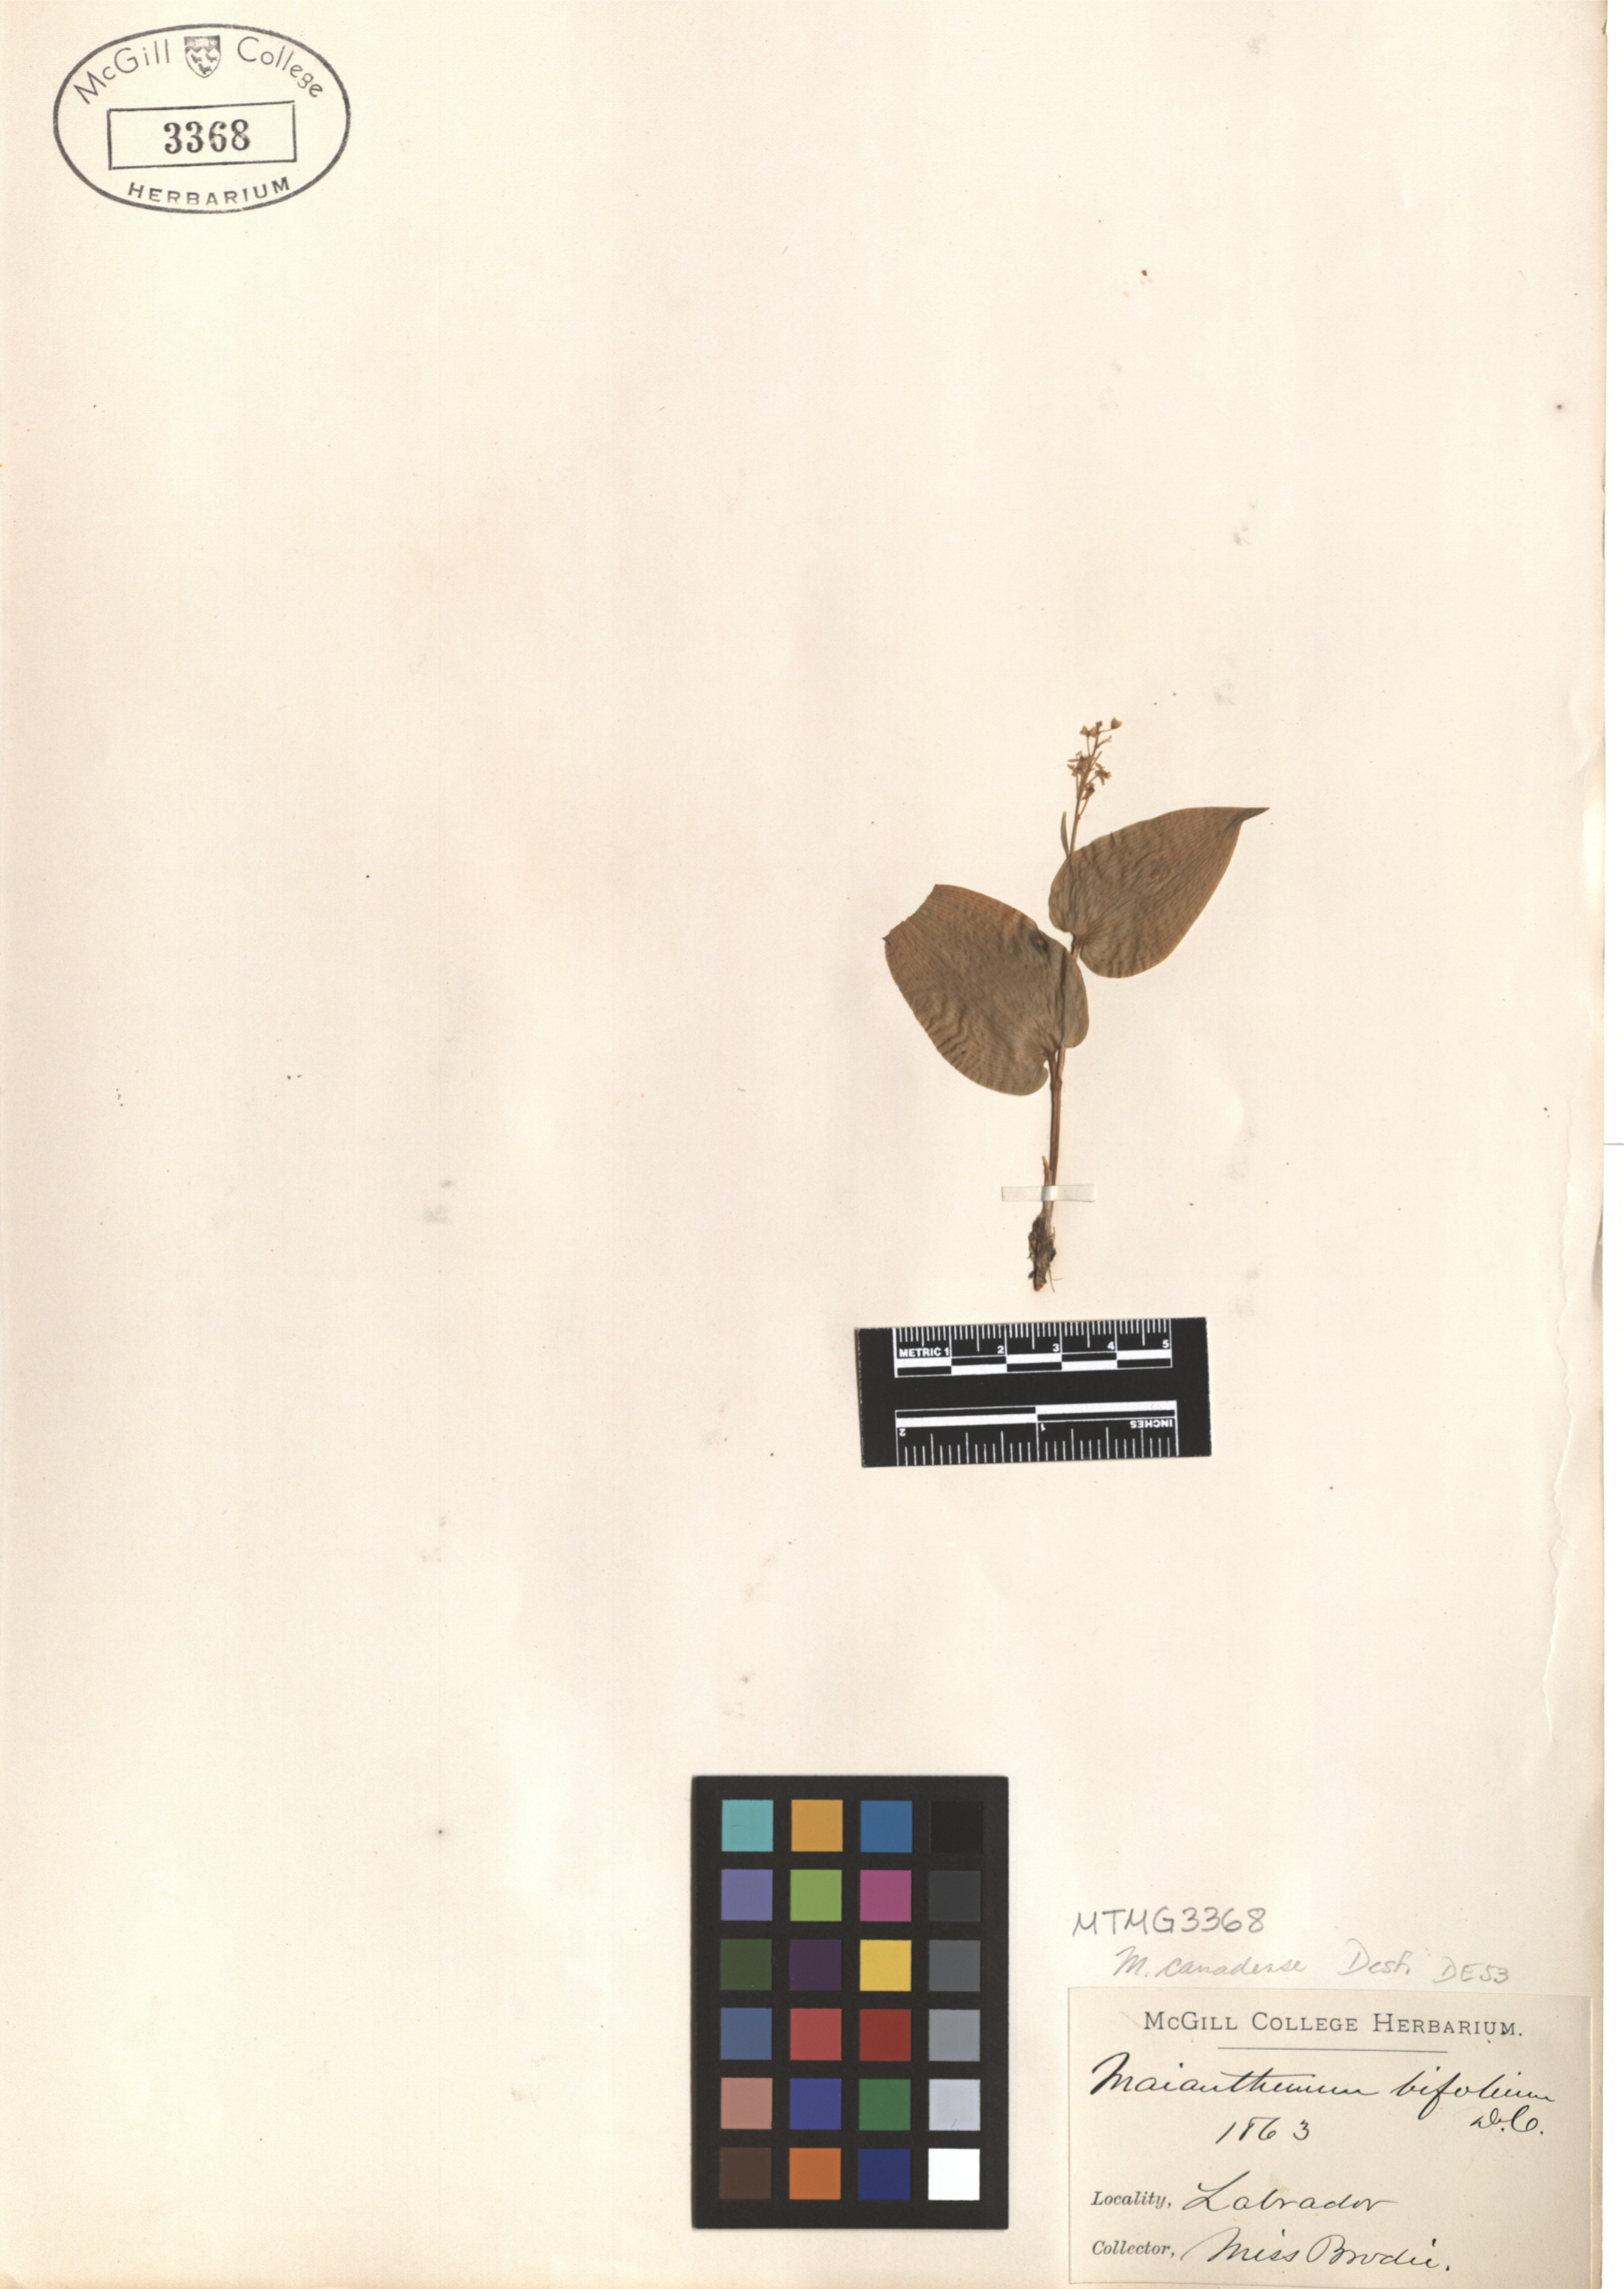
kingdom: Plantae
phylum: Tracheophyta
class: Liliopsida
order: Asparagales
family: Asparagaceae
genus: Maianthemum
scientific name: Maianthemum canadense
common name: False lily-of-the-valley
